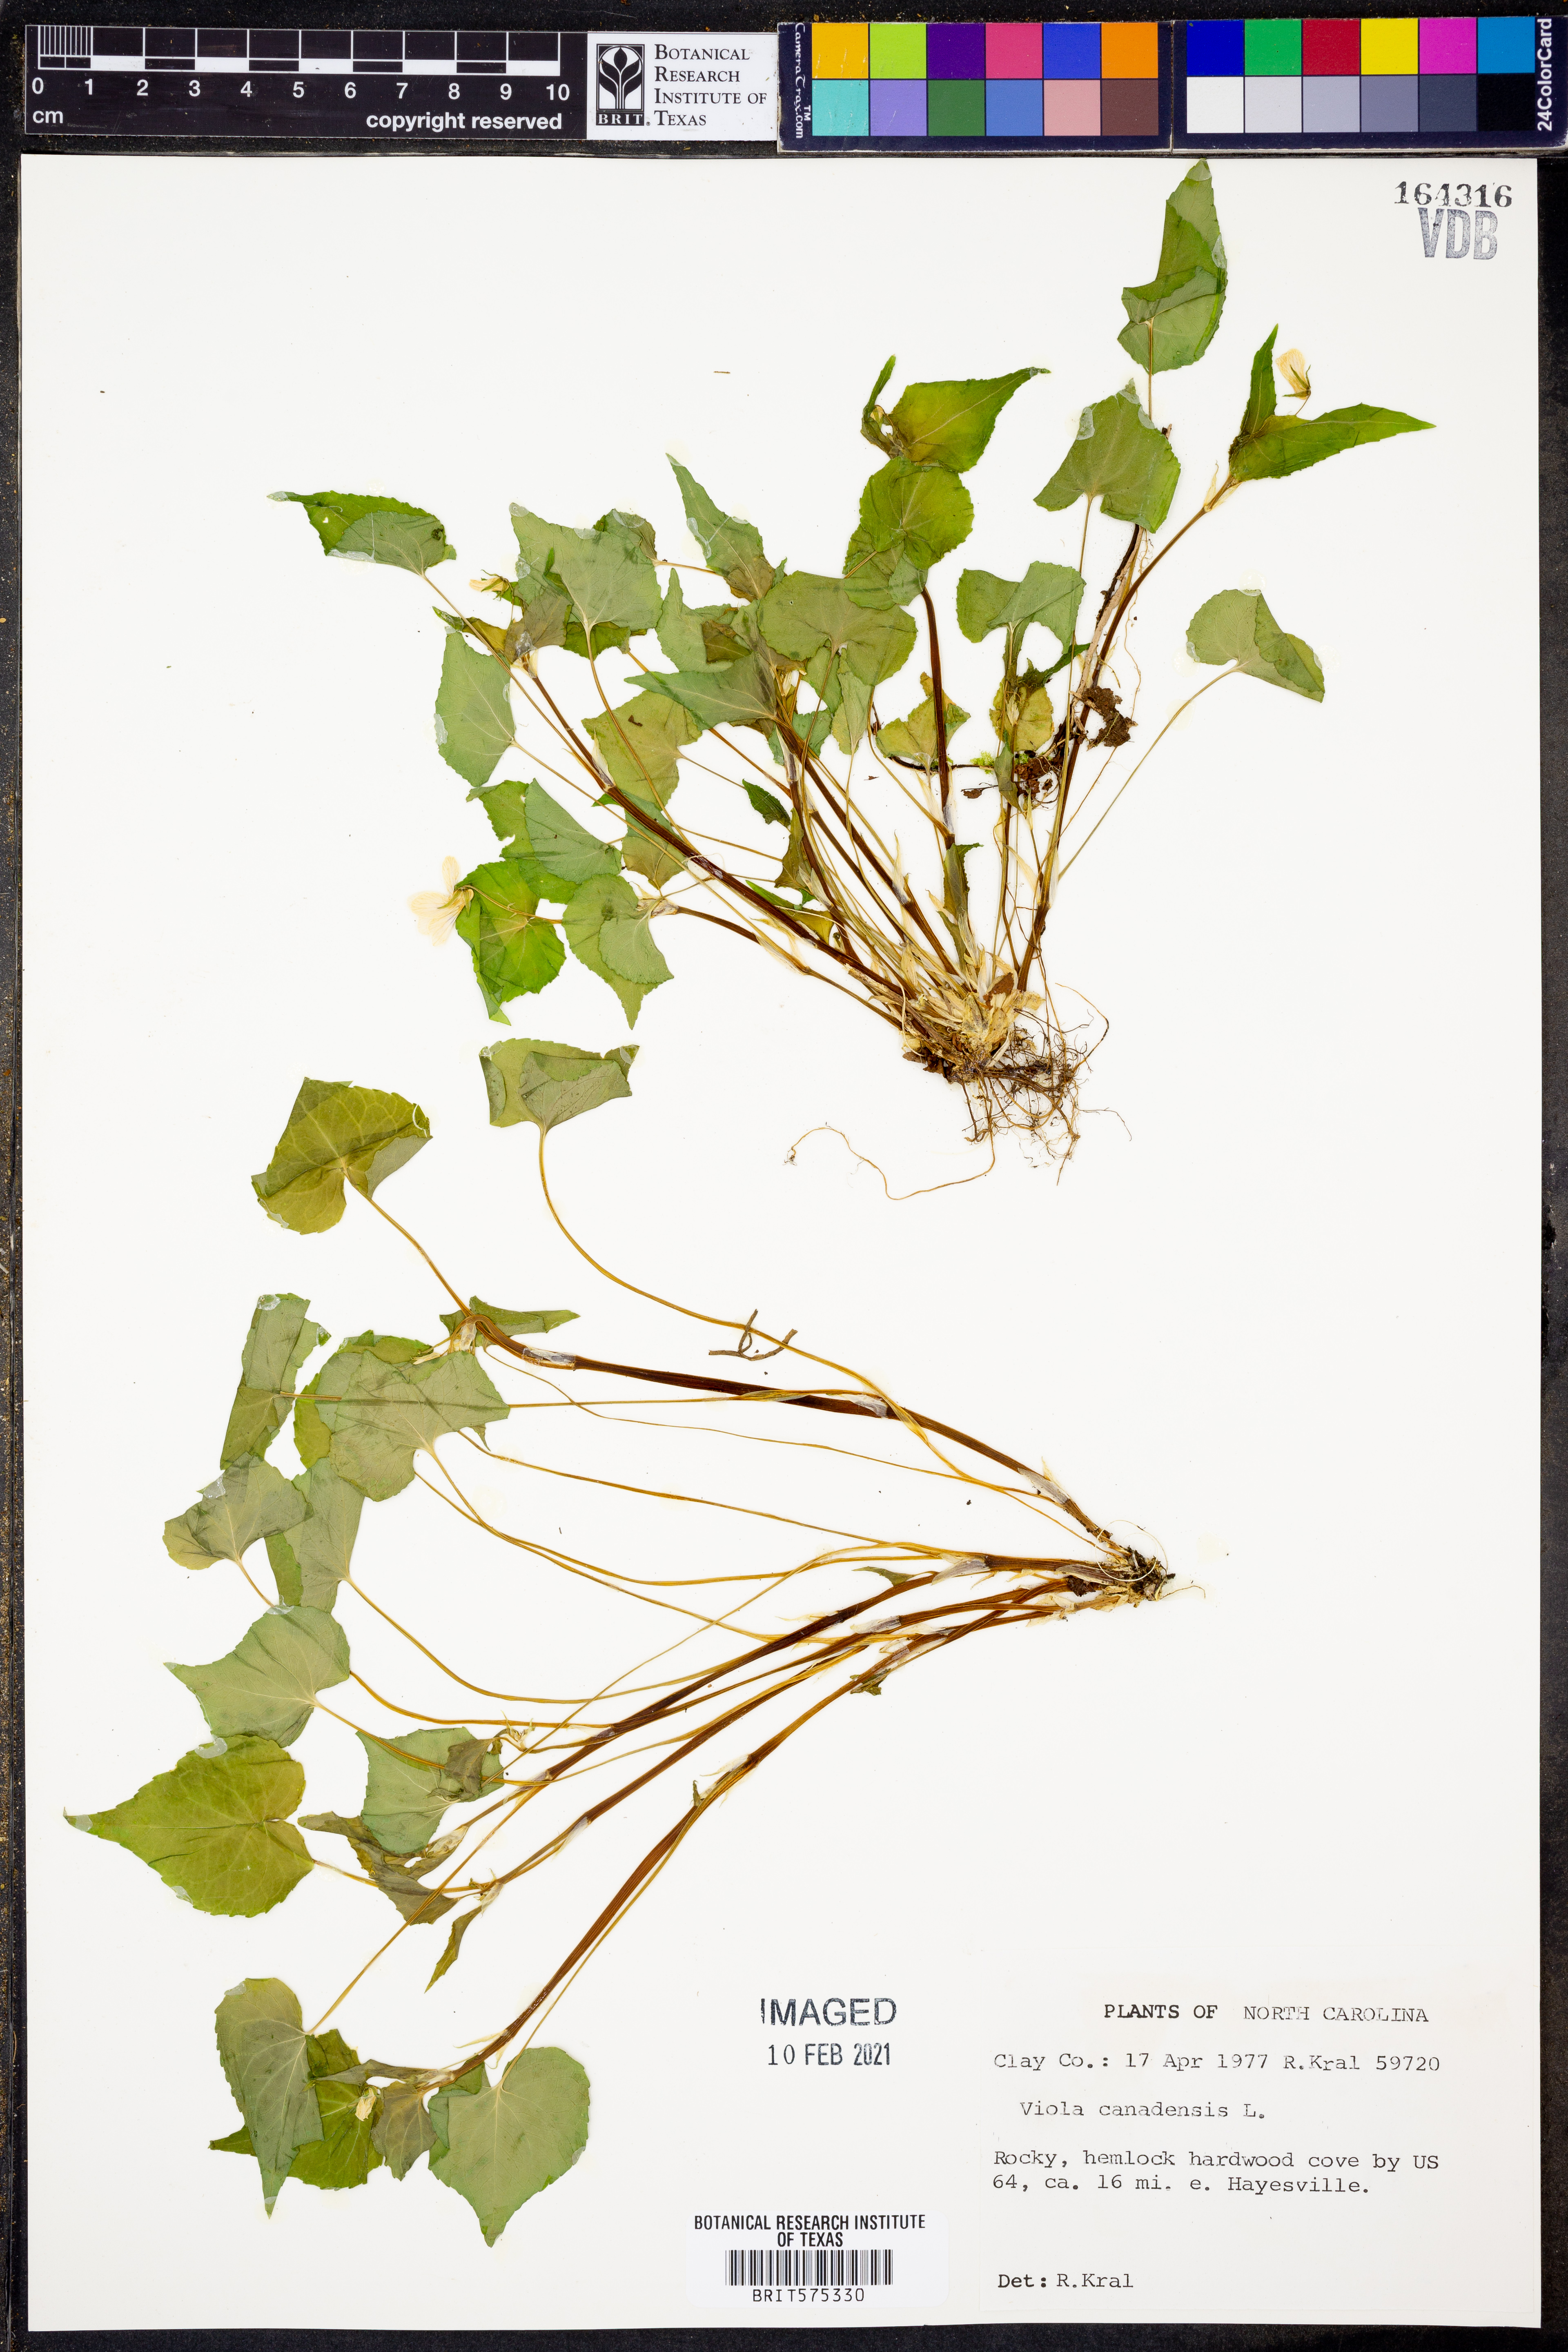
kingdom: Plantae
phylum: Tracheophyta
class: Magnoliopsida
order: Malpighiales
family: Violaceae
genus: Viola
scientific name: Viola canadensis
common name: Canada violet
